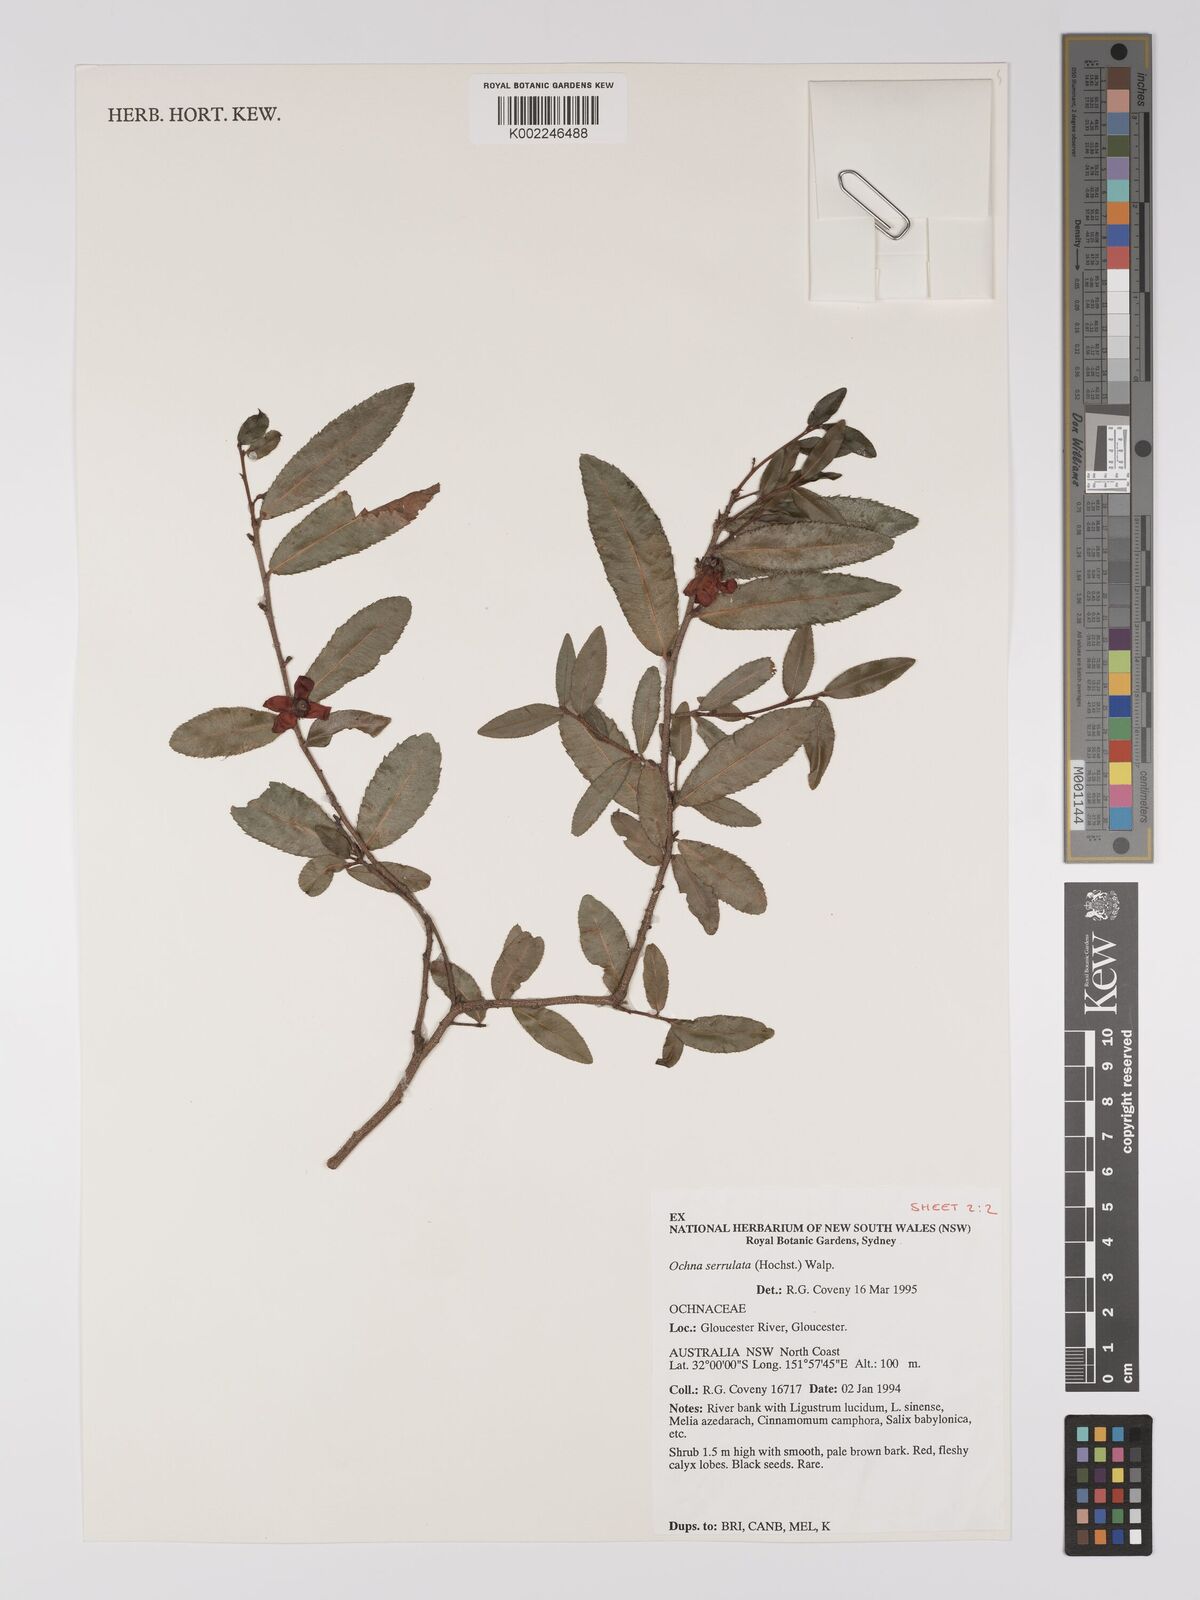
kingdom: Plantae
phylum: Tracheophyta
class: Magnoliopsida
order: Malpighiales
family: Ochnaceae
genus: Ochna
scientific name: Ochna atropurpurea
